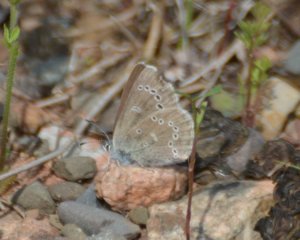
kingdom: Animalia
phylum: Arthropoda
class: Insecta
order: Lepidoptera
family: Lycaenidae
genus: Glaucopsyche
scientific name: Glaucopsyche lygdamus
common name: Silvery Blue
